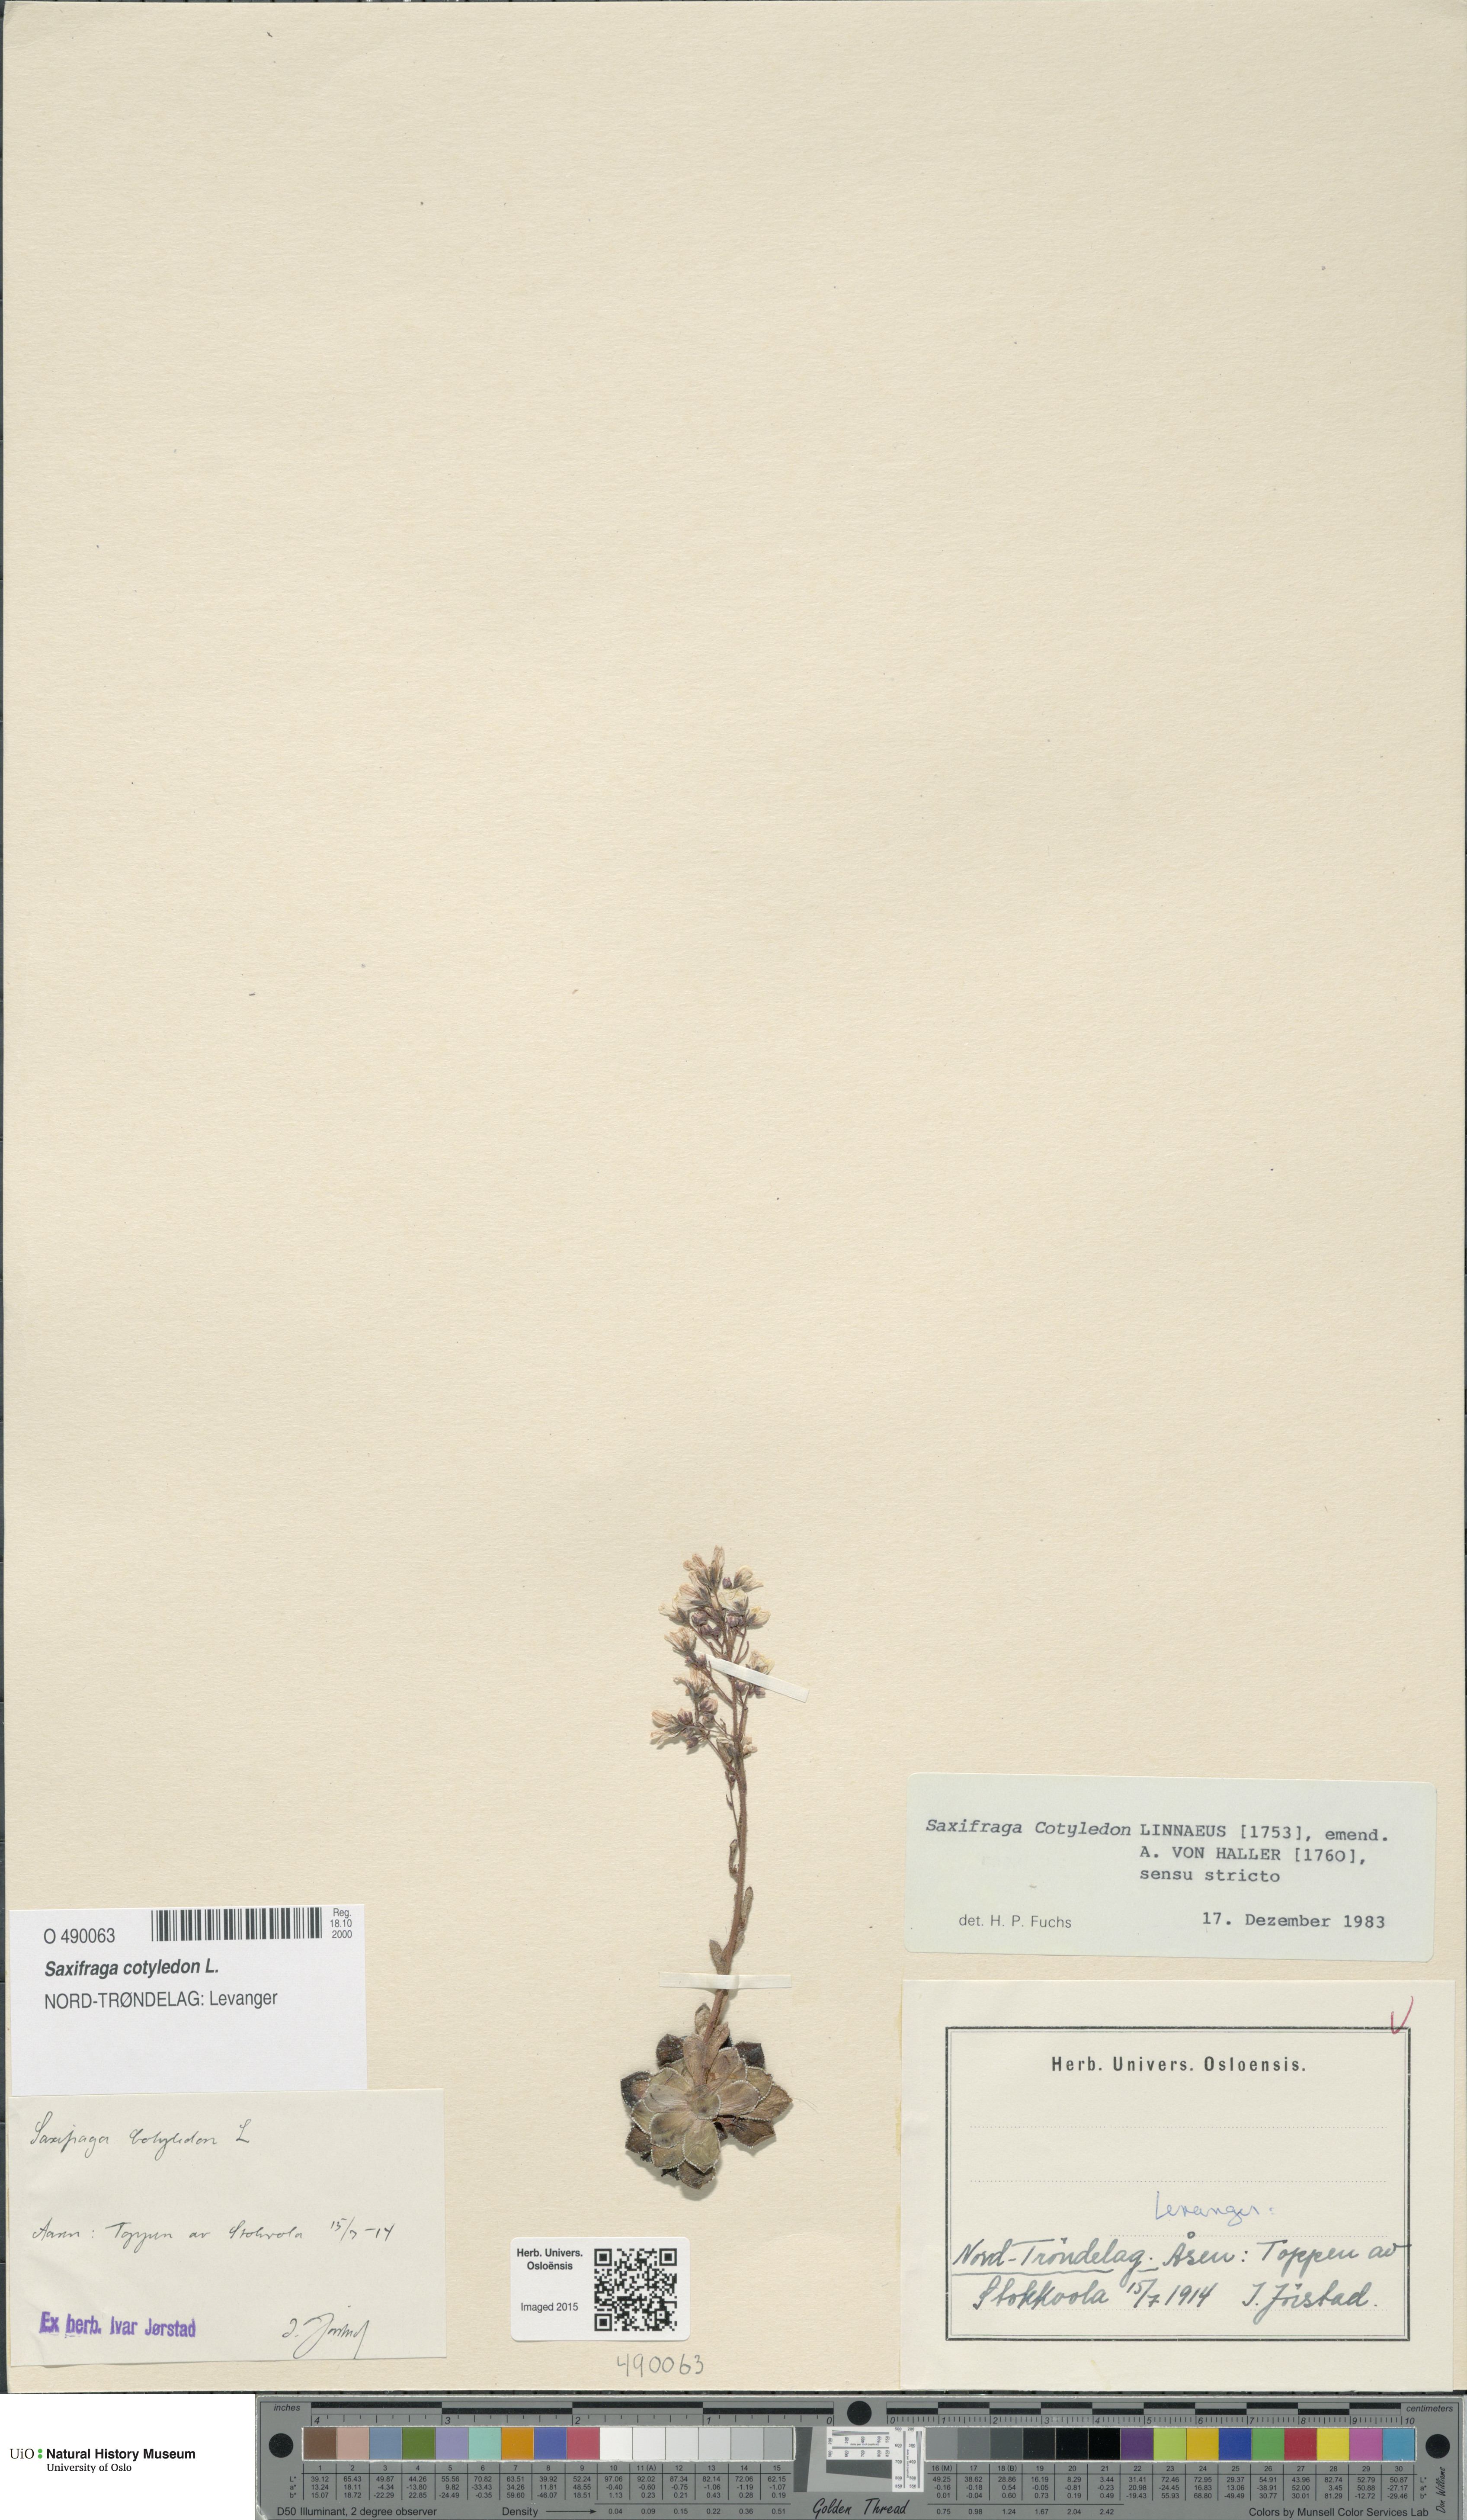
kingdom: Plantae
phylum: Tracheophyta
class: Magnoliopsida
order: Saxifragales
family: Saxifragaceae
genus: Saxifraga
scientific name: Saxifraga cotyledon
